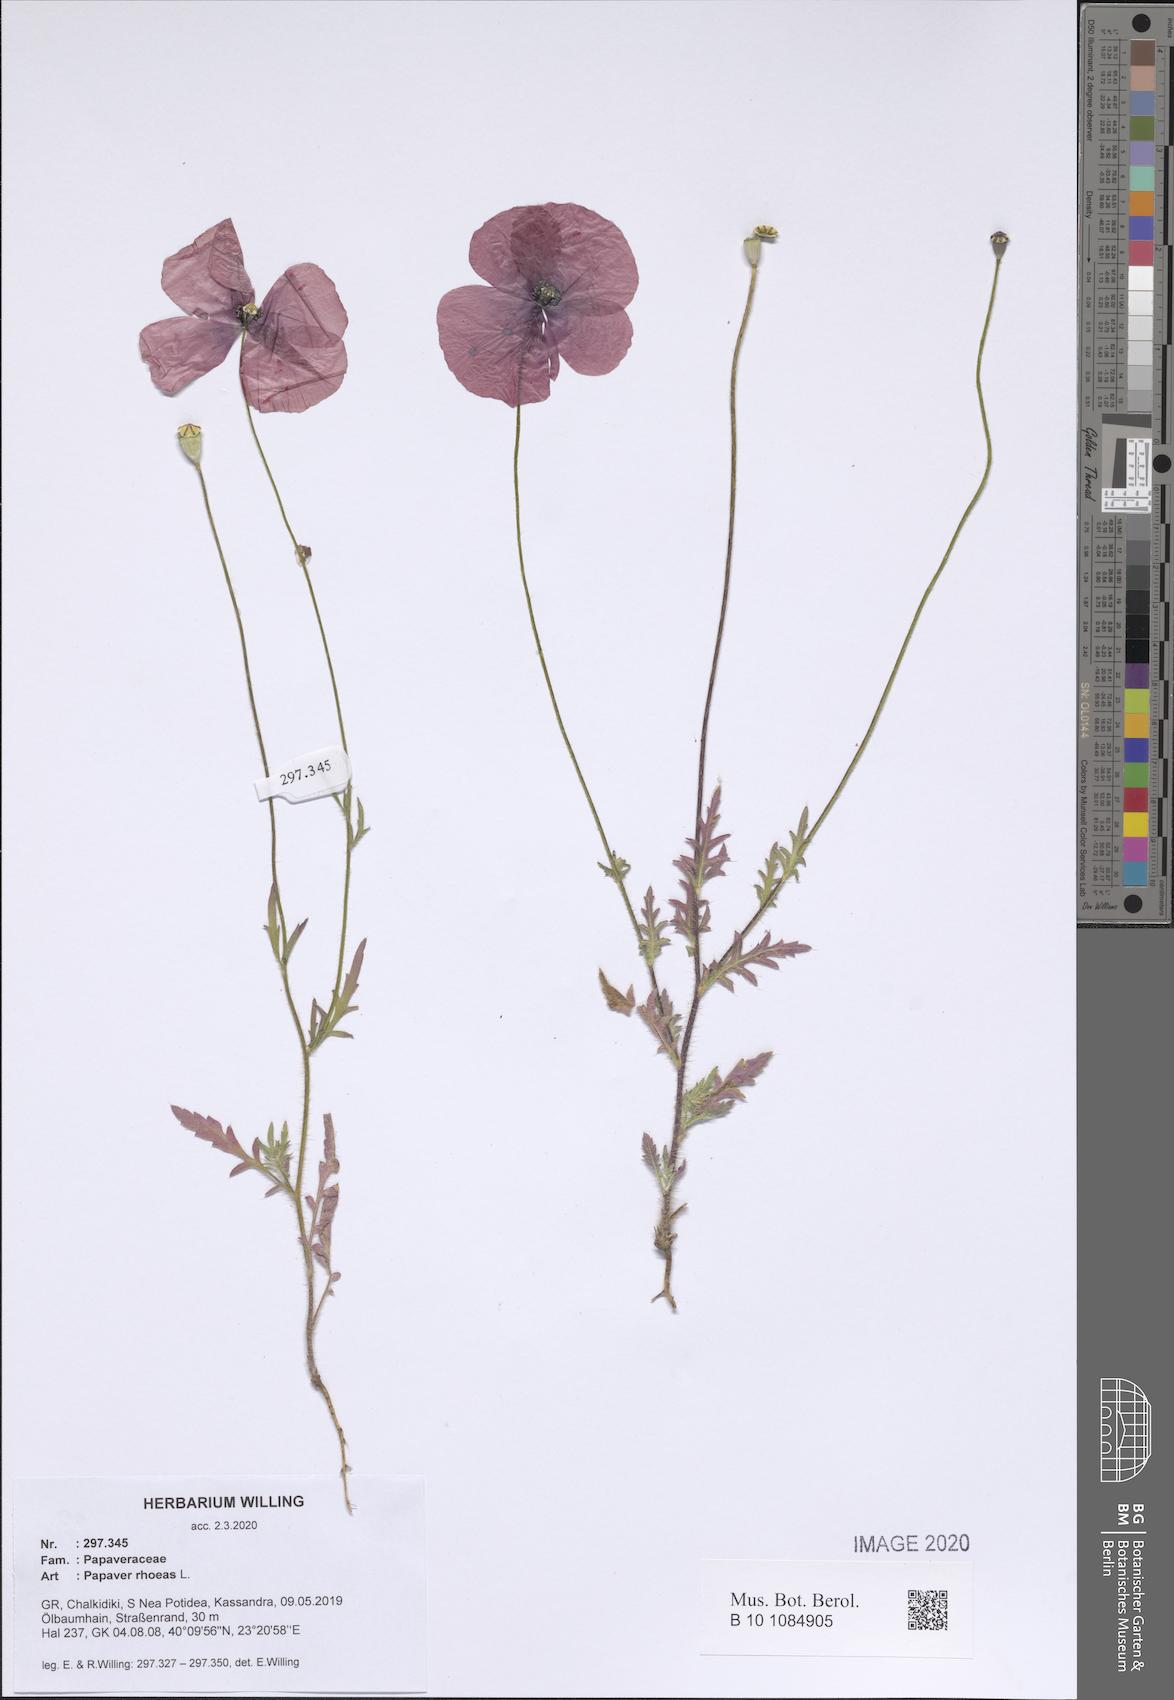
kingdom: Plantae
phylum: Tracheophyta
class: Magnoliopsida
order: Ranunculales
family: Papaveraceae
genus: Papaver
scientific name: Papaver rhoeas
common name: Corn poppy
